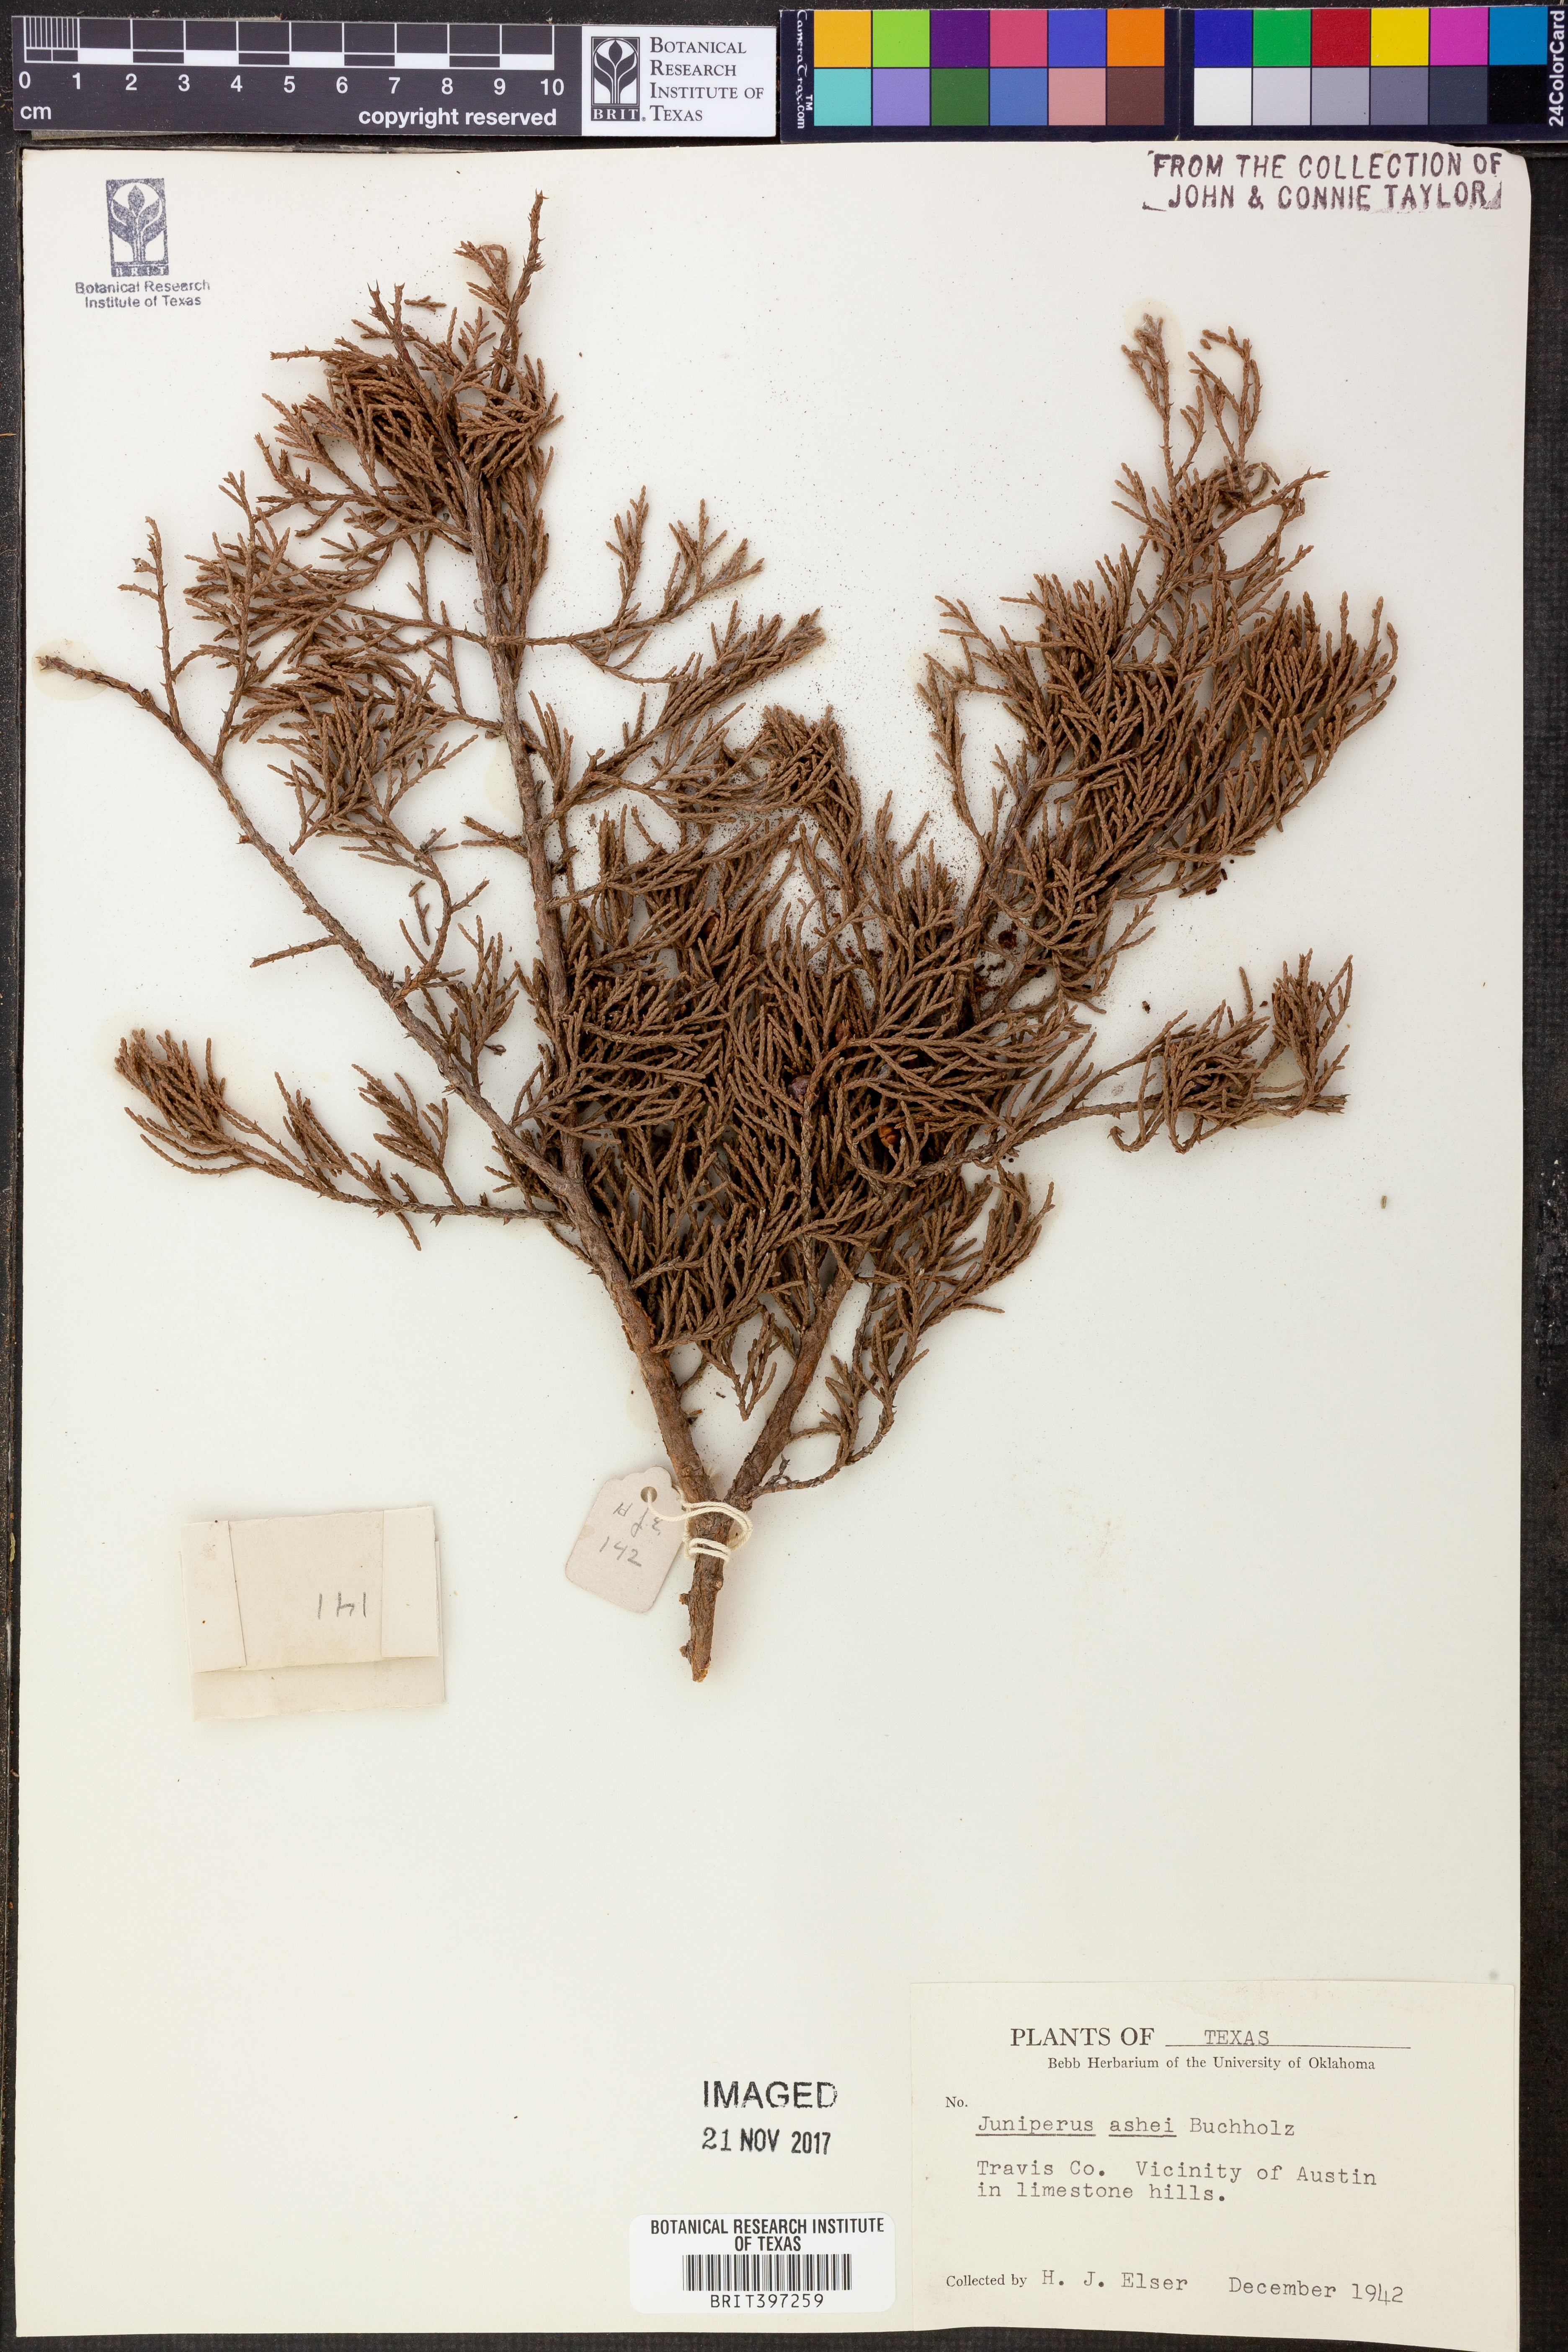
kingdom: Plantae
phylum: Tracheophyta
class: Pinopsida
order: Pinales
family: Cupressaceae
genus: Juniperus
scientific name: Juniperus ashei
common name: Mexican juniper
